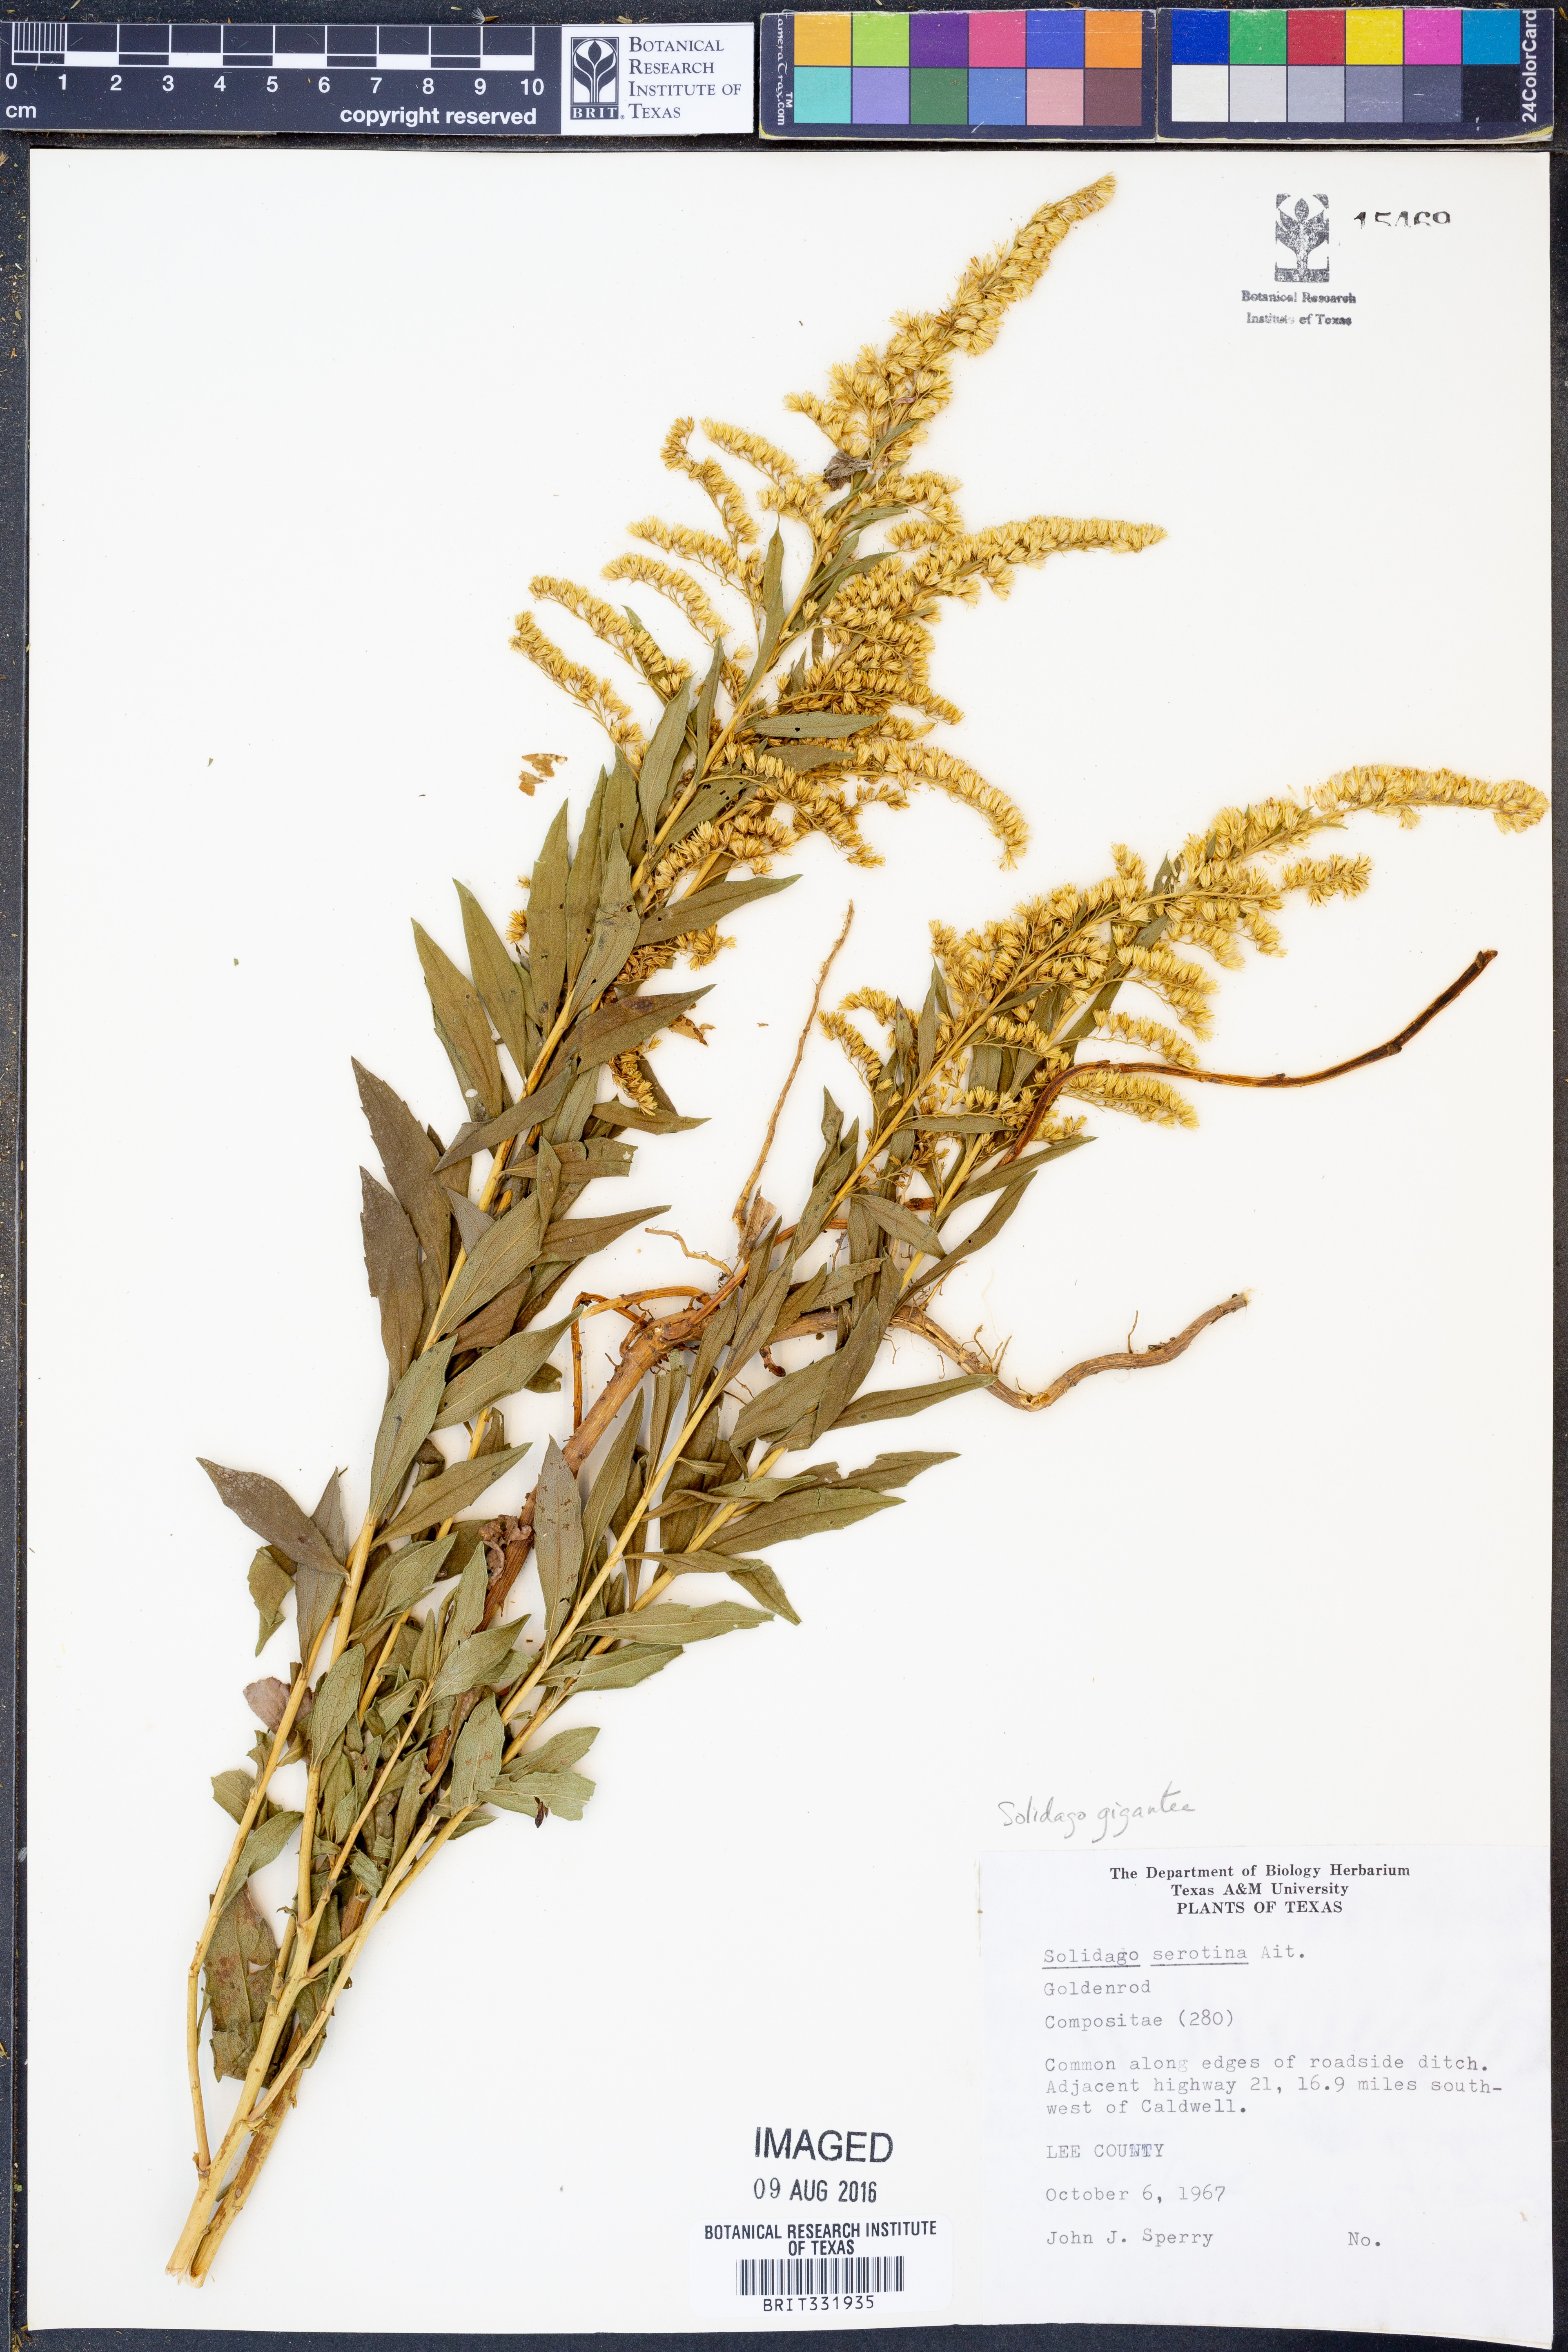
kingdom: Plantae
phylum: Tracheophyta
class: Magnoliopsida
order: Asterales
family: Asteraceae
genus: Solidago
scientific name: Solidago gigantea
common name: Giant goldenrod
